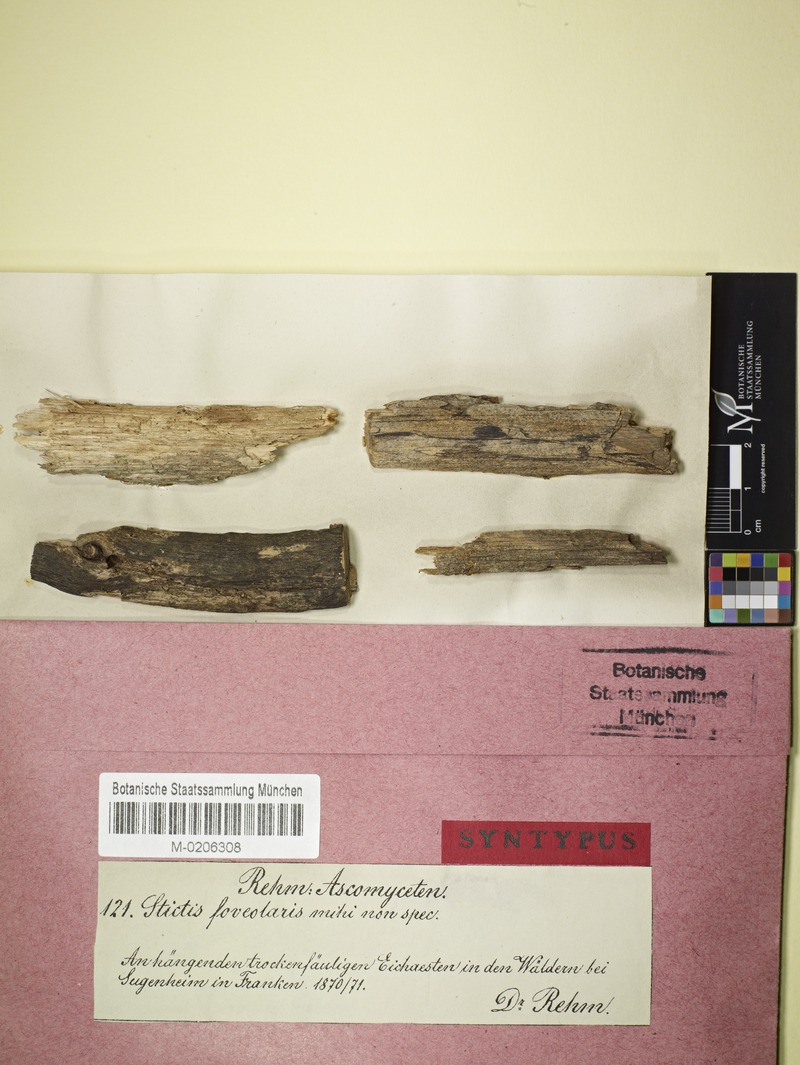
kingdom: Plantae
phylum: Tracheophyta
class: Magnoliopsida
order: Fagales
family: Fagaceae
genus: Quercus
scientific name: Quercus
